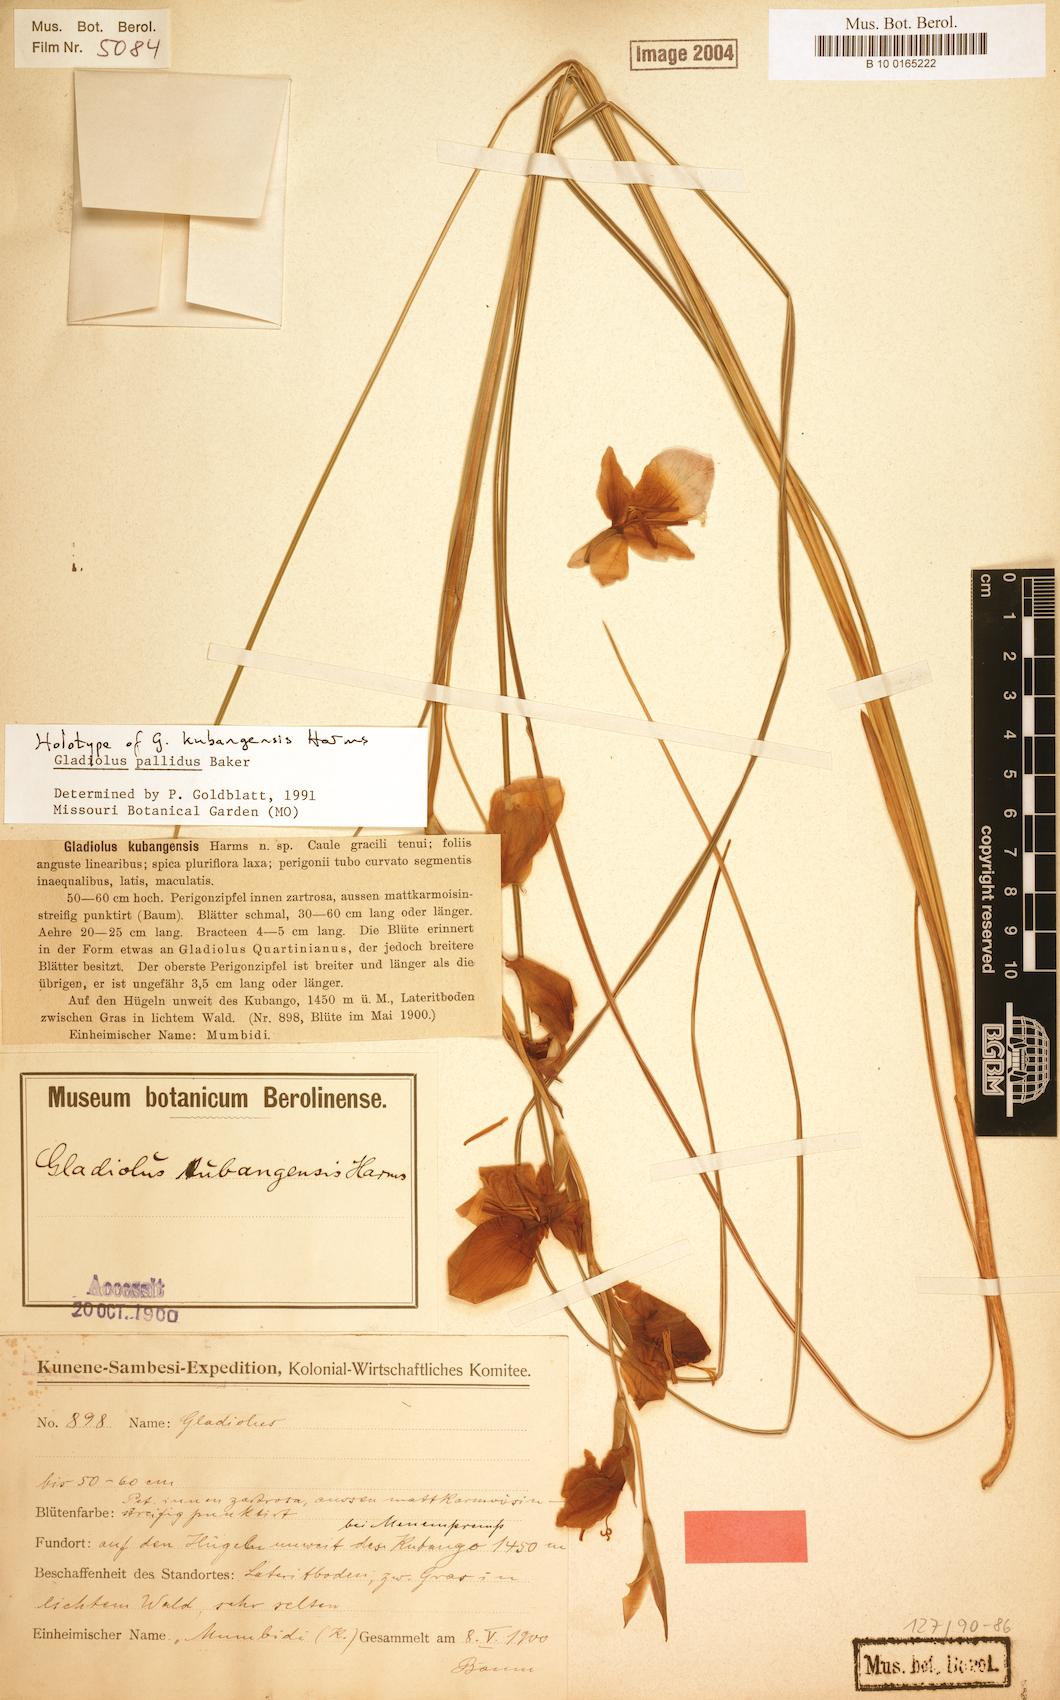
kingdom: Plantae
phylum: Tracheophyta
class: Liliopsida
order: Asparagales
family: Iridaceae
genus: Gladiolus
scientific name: Gladiolus baumii
